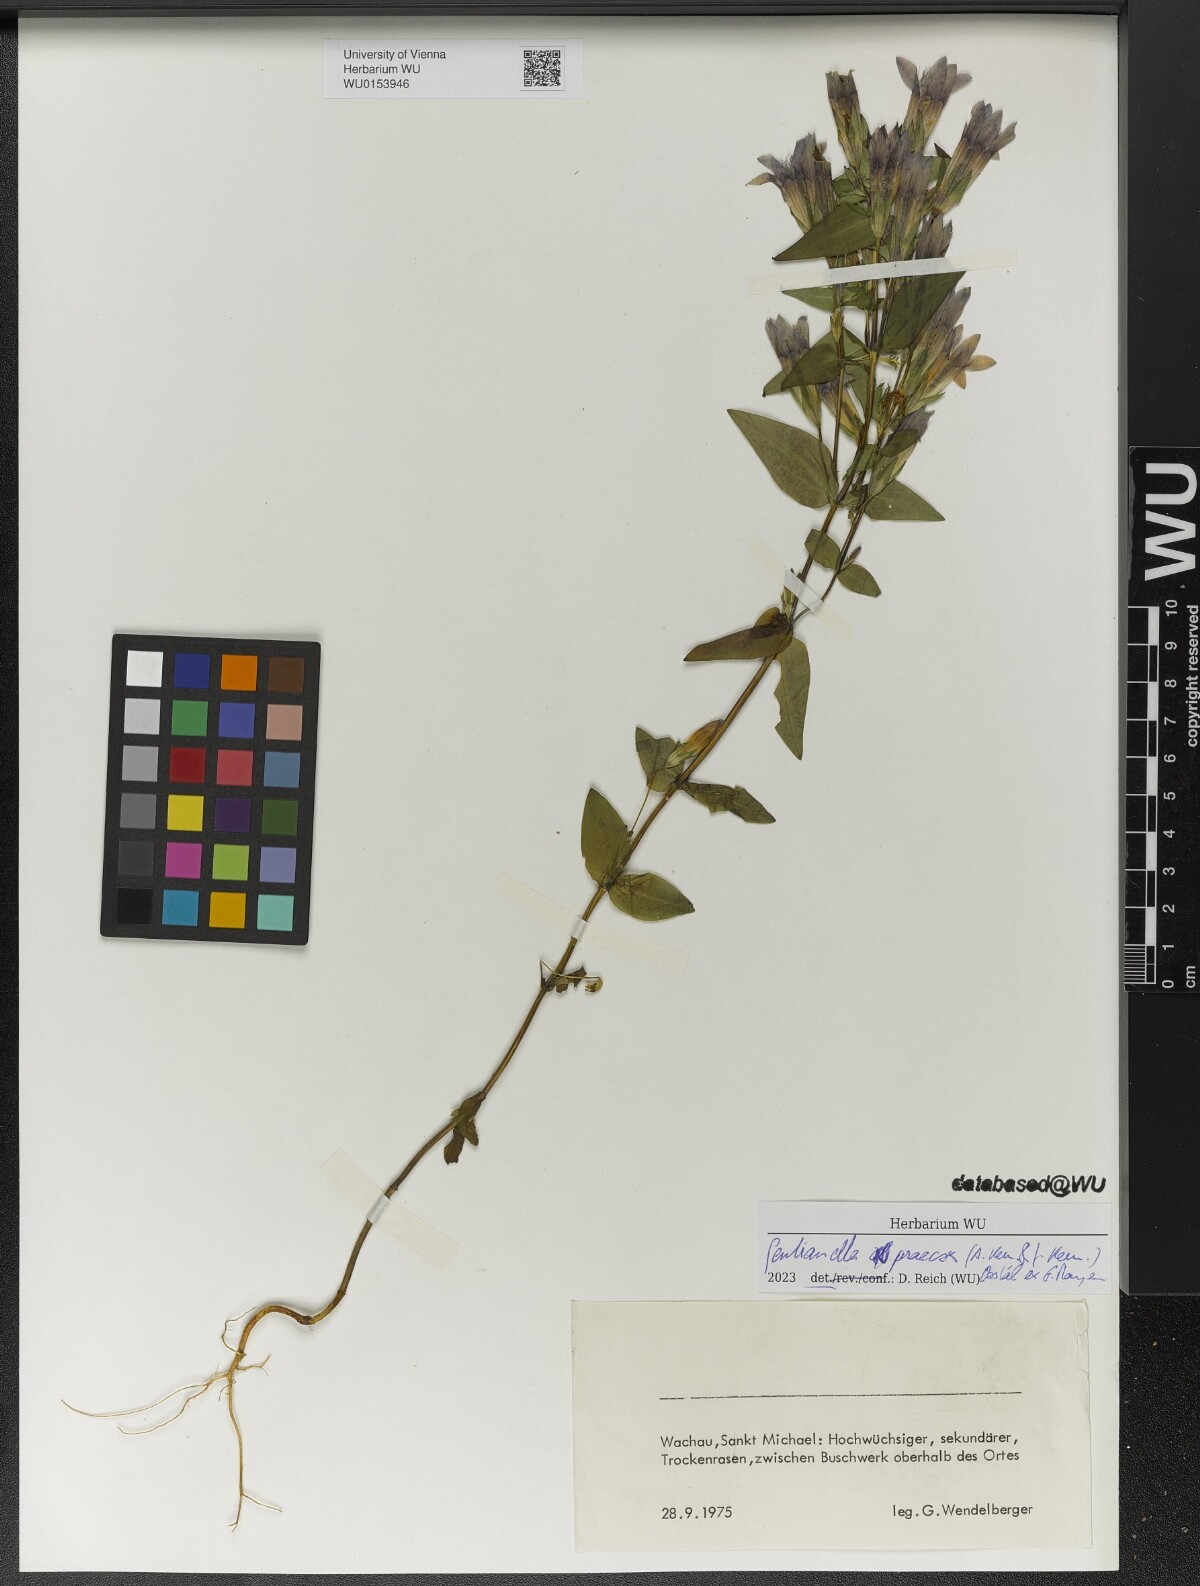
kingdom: Plantae
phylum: Tracheophyta
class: Magnoliopsida
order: Gentianales
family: Gentianaceae
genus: Gentianella
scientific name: Gentianella praecox
